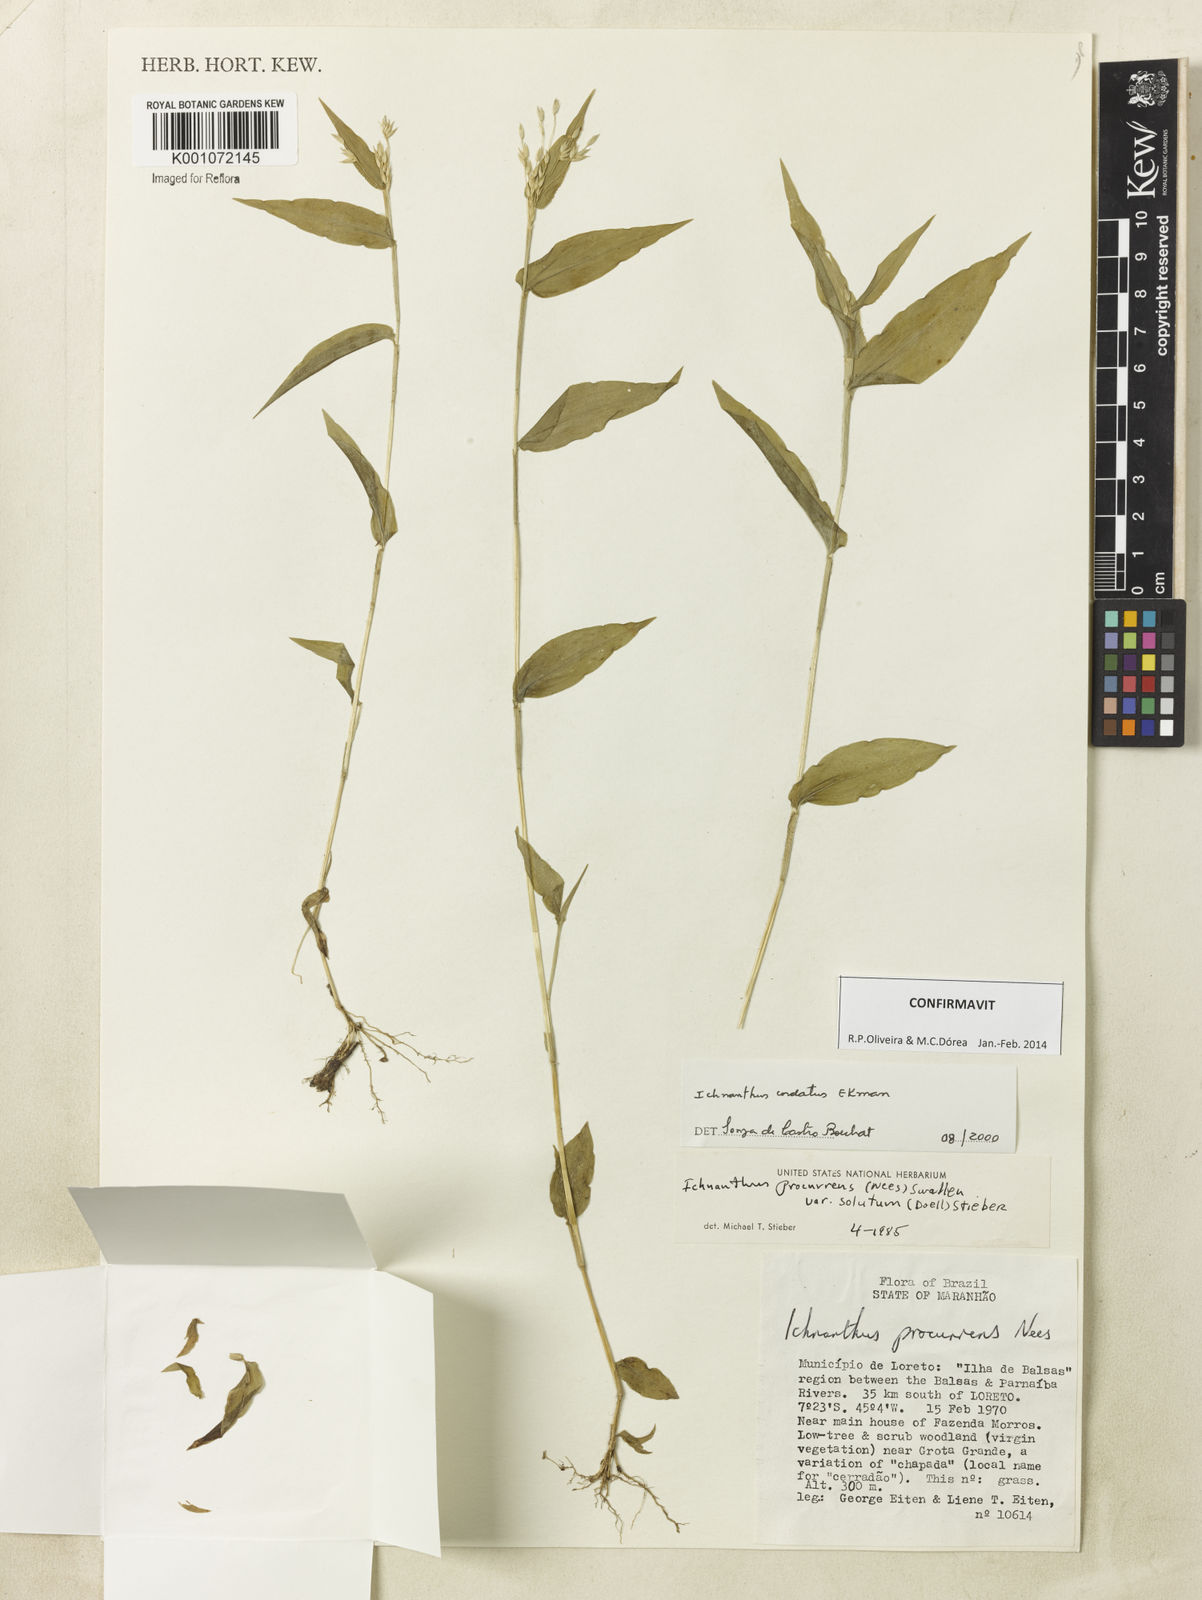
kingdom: Plantae
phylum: Tracheophyta
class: Liliopsida
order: Poales
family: Poaceae
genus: Oedochloa
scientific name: Oedochloa mayarensis
